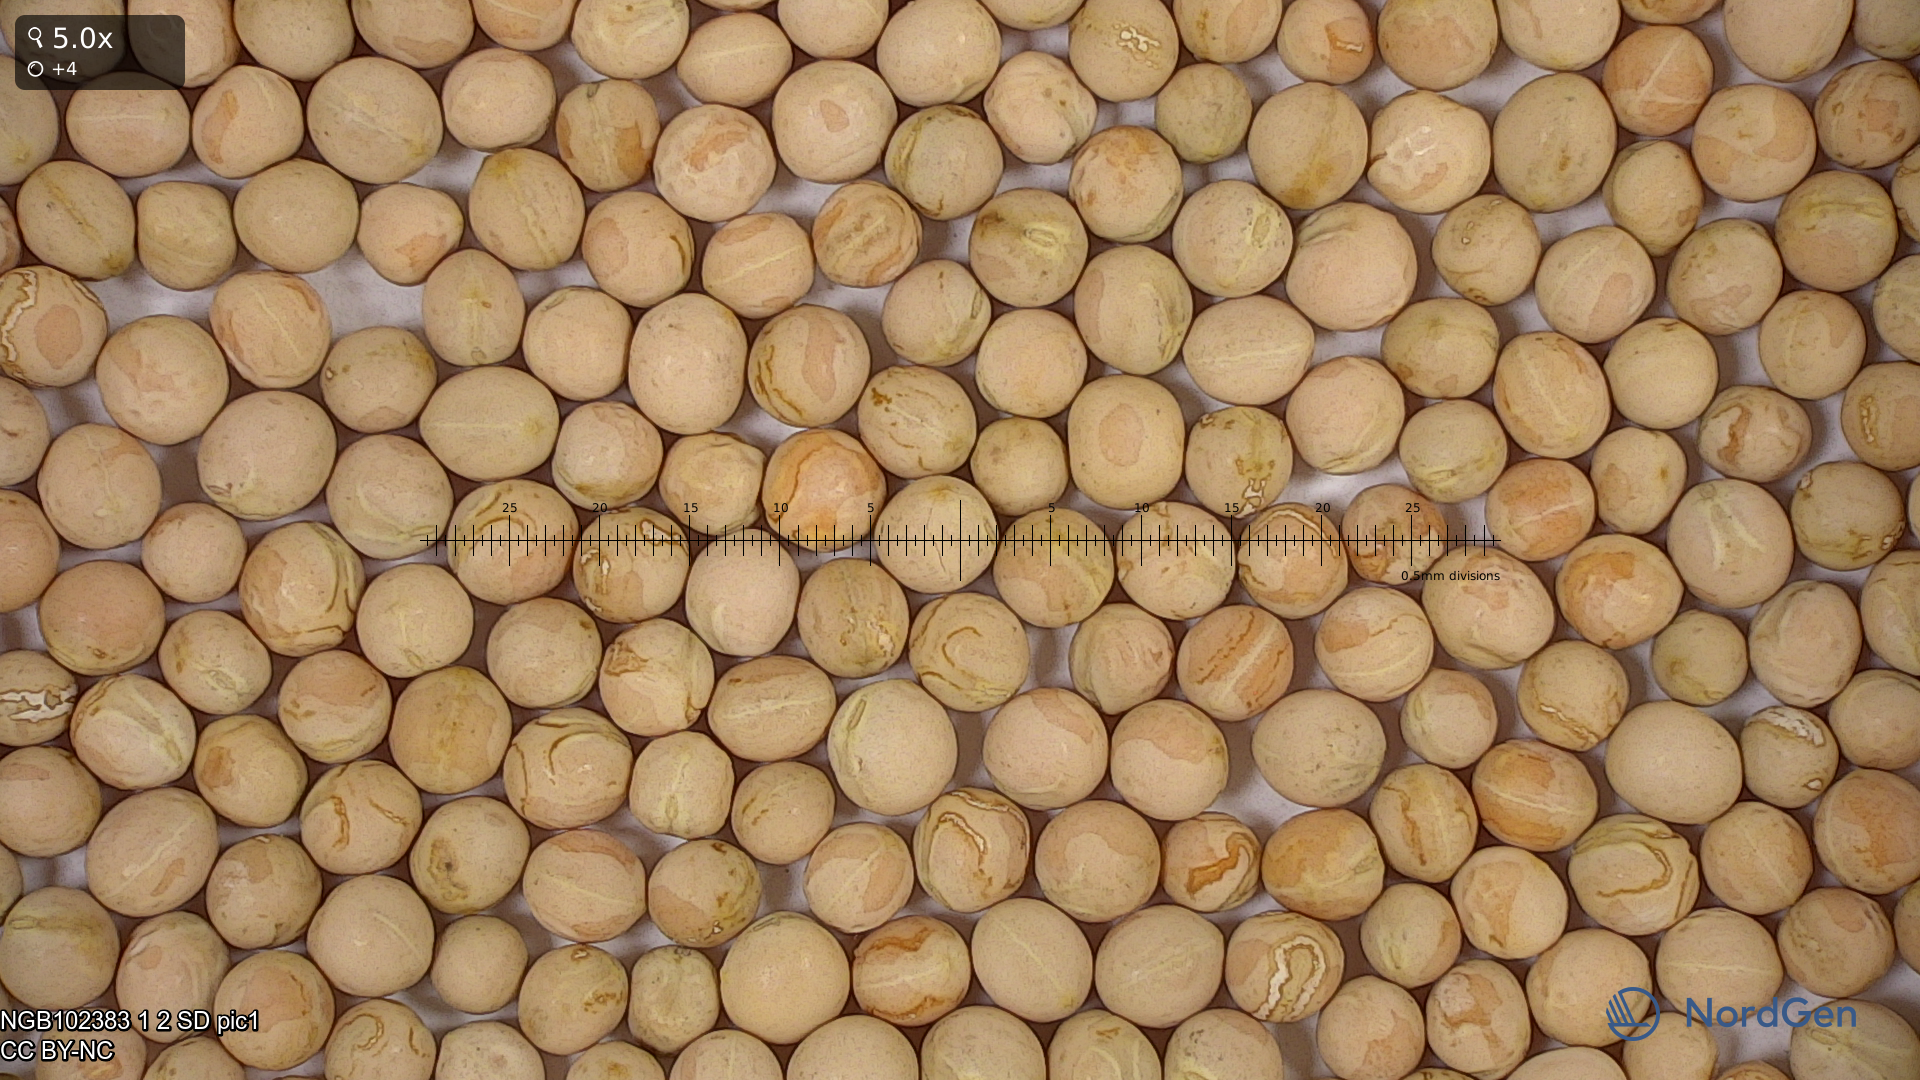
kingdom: Plantae
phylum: Tracheophyta
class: Magnoliopsida
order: Fabales
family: Fabaceae
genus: Lathyrus
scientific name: Lathyrus oleraceus
